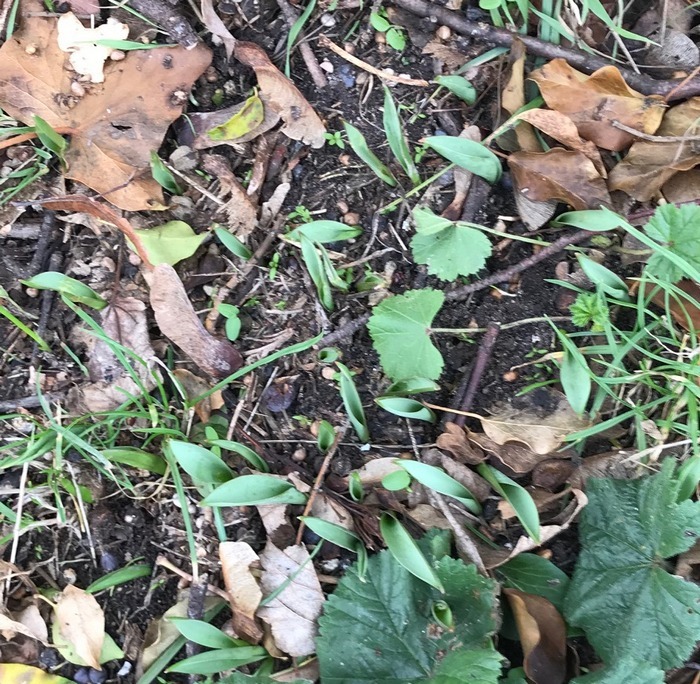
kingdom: Plantae
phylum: Tracheophyta
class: Liliopsida
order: Liliales
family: Liliaceae
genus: Tulipa
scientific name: Tulipa sylvestris
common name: Vild tulipan
